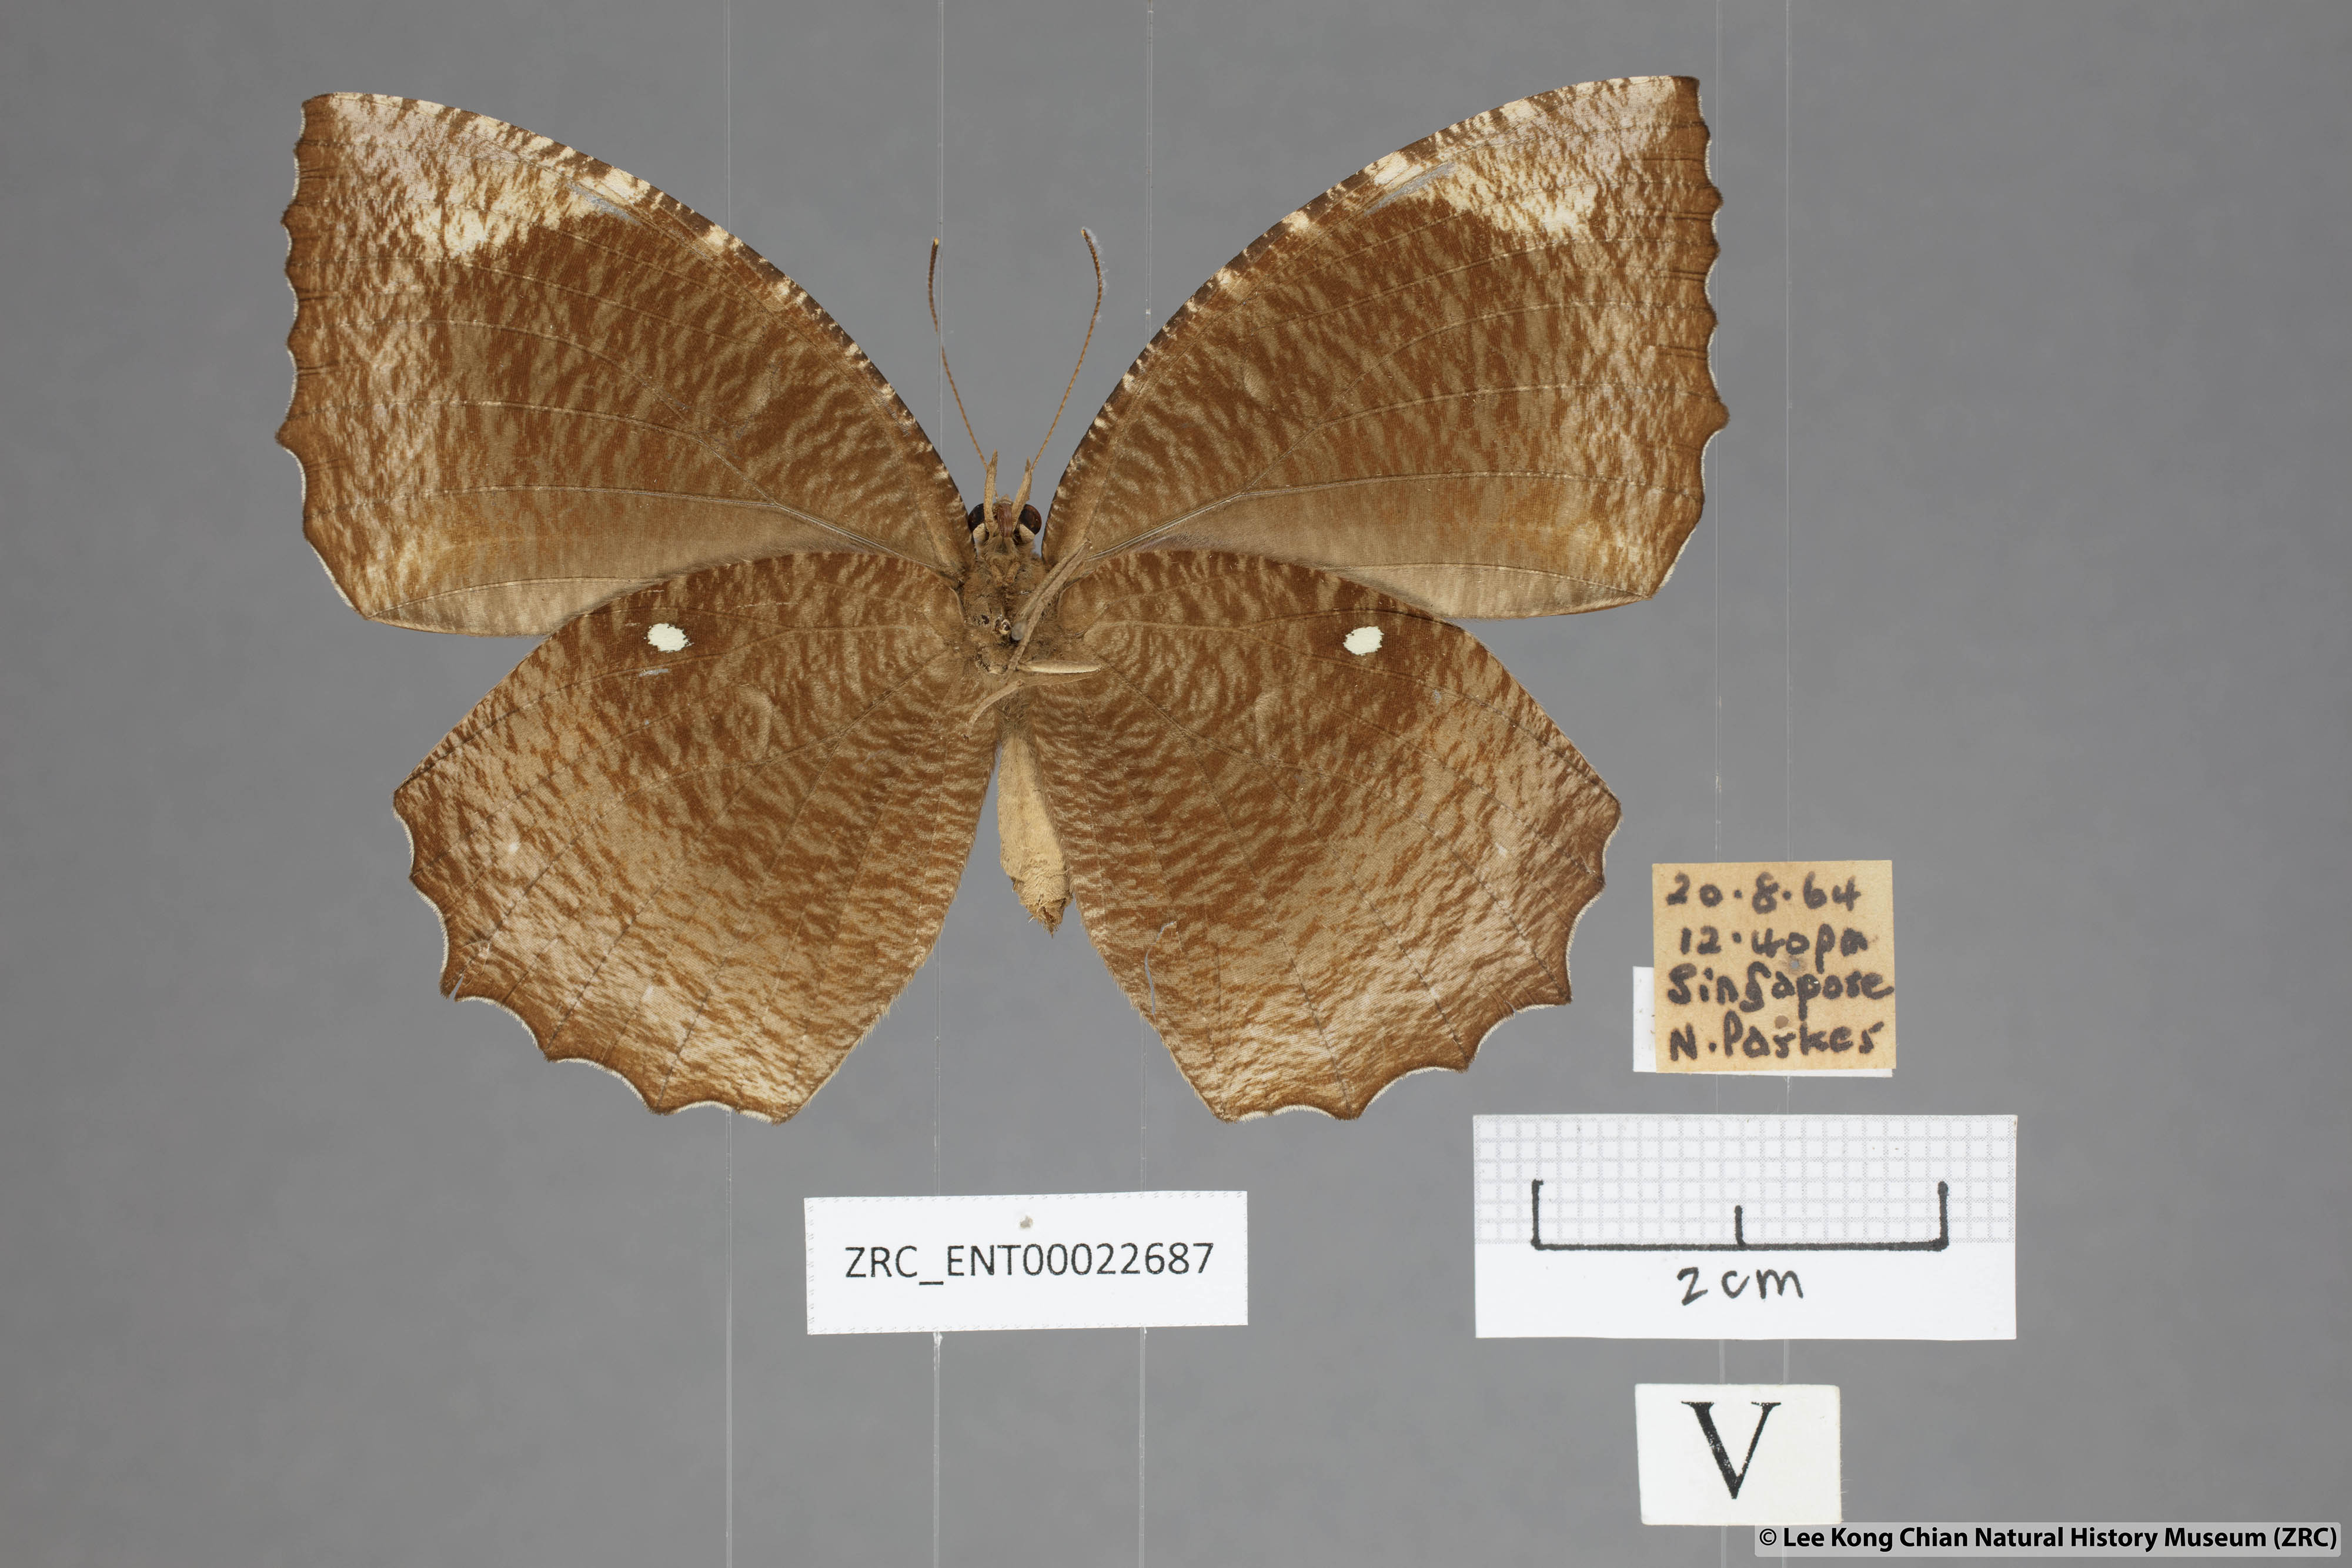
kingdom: Animalia
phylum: Arthropoda
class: Insecta
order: Lepidoptera
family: Nymphalidae
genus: Elymnias
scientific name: Elymnias hypermnestra
